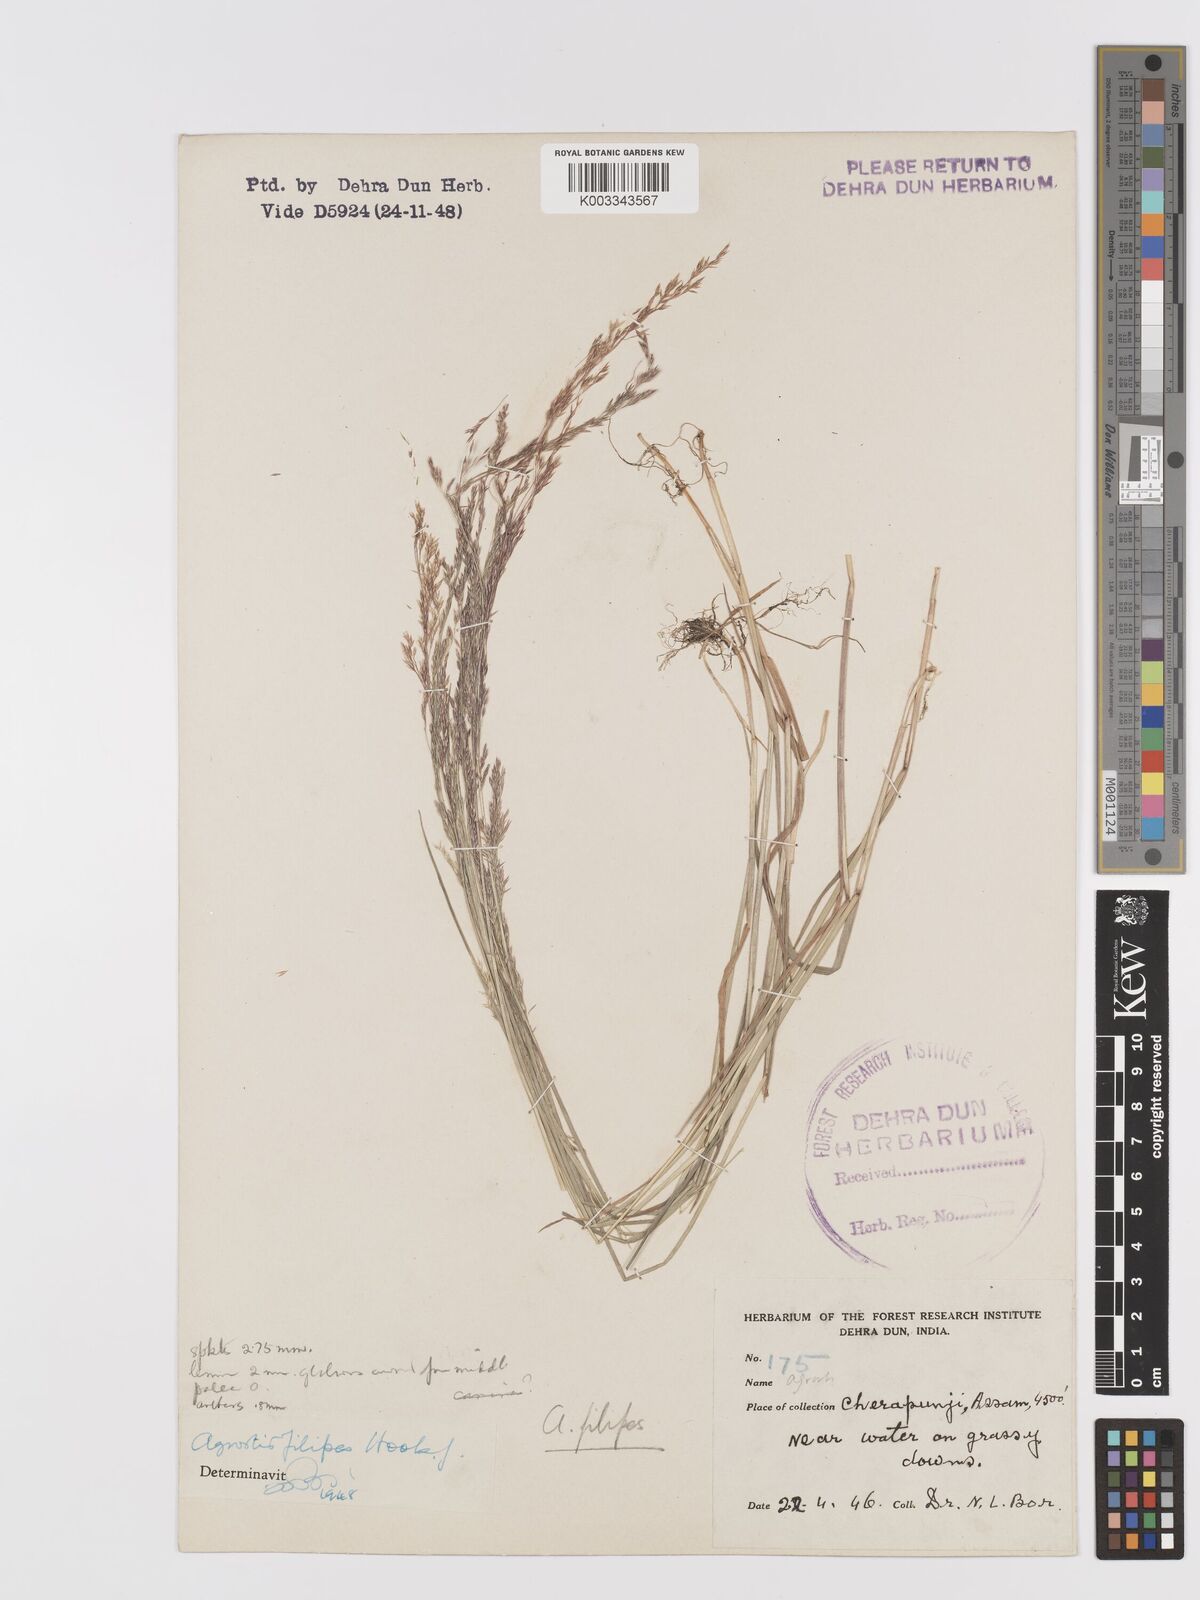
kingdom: Plantae
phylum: Tracheophyta
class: Liliopsida
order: Poales
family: Poaceae
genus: Agrostis
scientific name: Agrostis filipes
